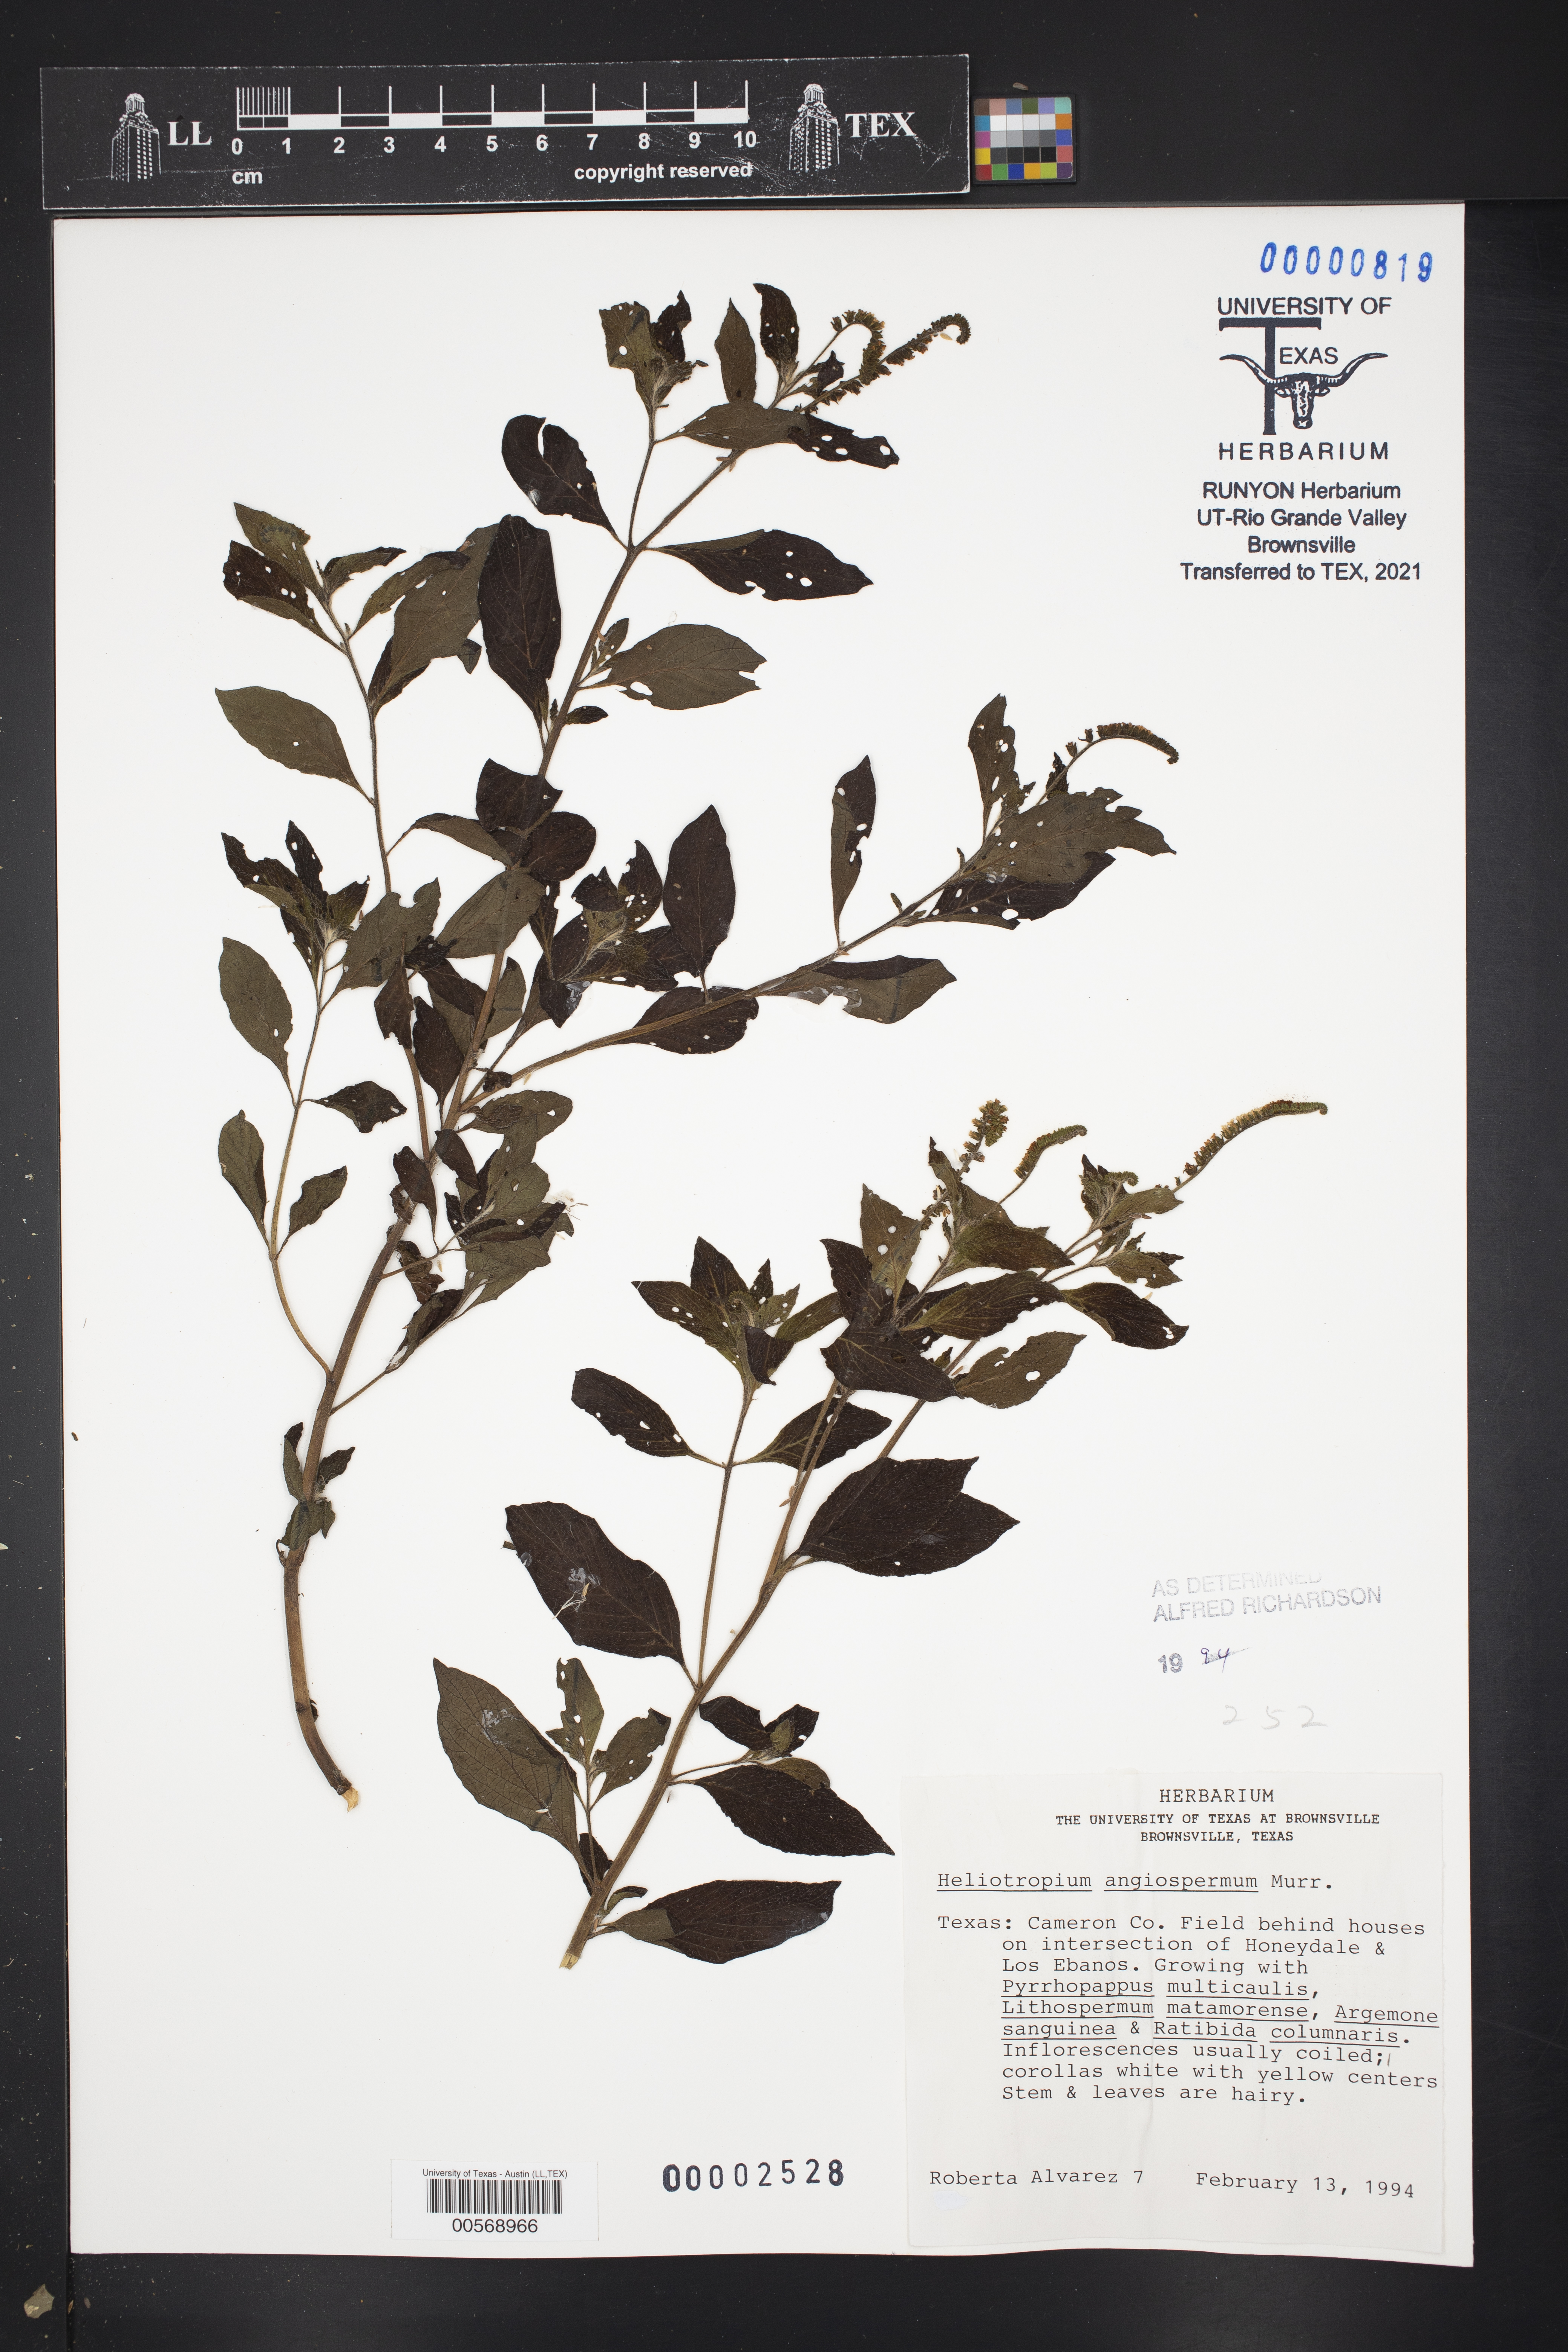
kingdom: Plantae
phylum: Tracheophyta
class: Magnoliopsida
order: Boraginales
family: Heliotropiaceae
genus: Heliotropium
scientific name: Heliotropium angiospermum
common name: Eye bright
